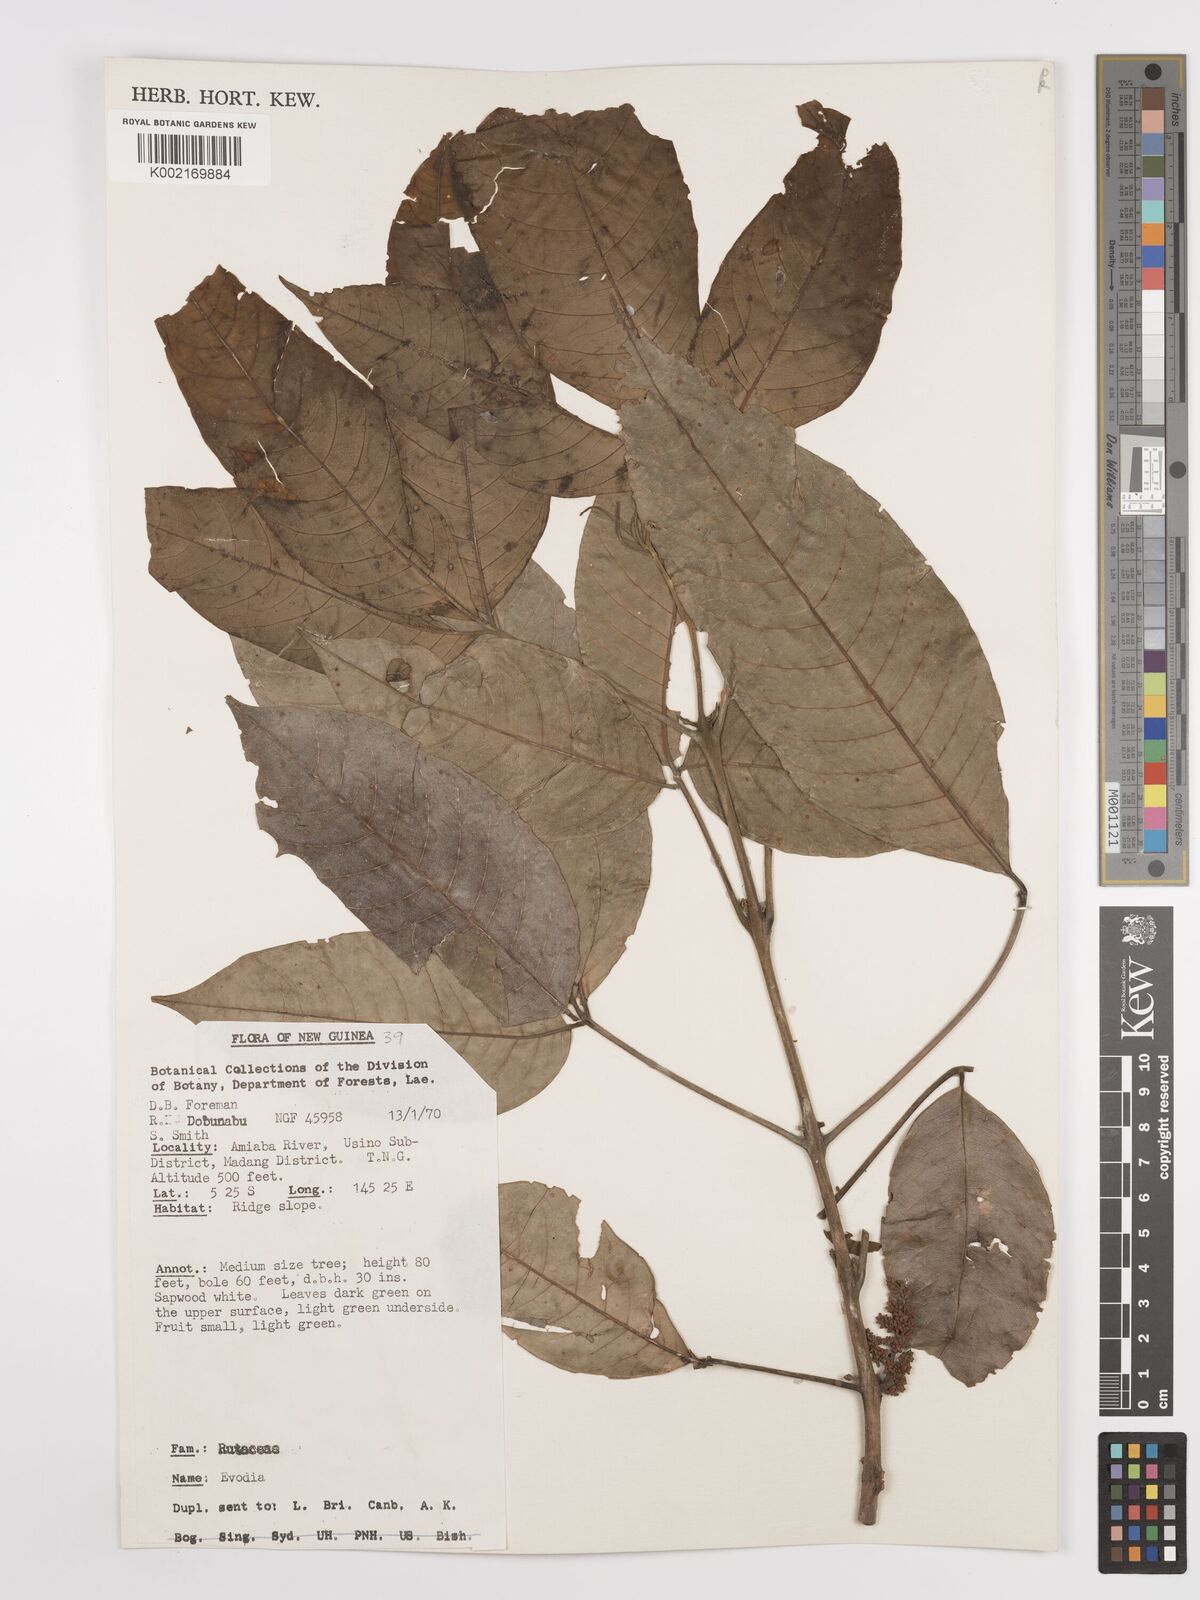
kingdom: Plantae
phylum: Tracheophyta
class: Magnoliopsida
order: Sapindales
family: Rutaceae
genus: Euodia
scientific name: Euodia
